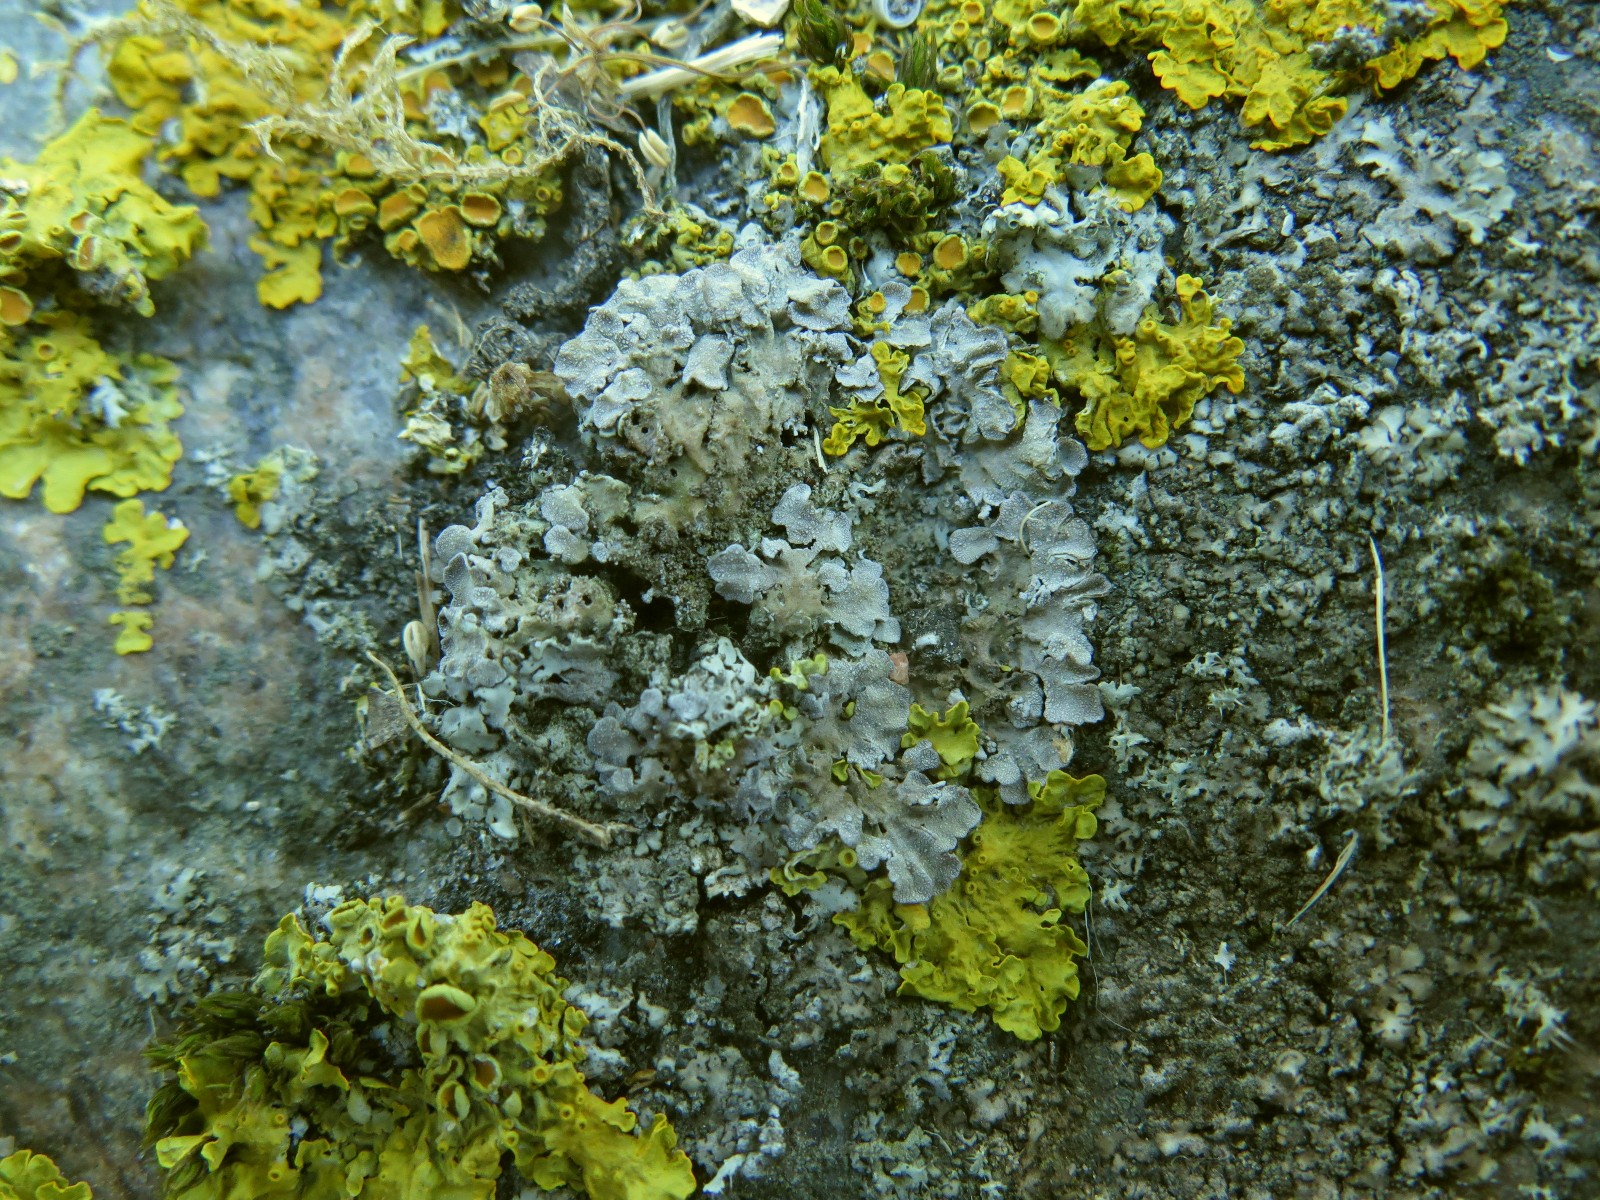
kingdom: Fungi
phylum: Ascomycota
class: Lecanoromycetes
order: Caliciales
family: Physciaceae
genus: Physconia
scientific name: Physconia enteroxantha
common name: grynet dugrosetlav
